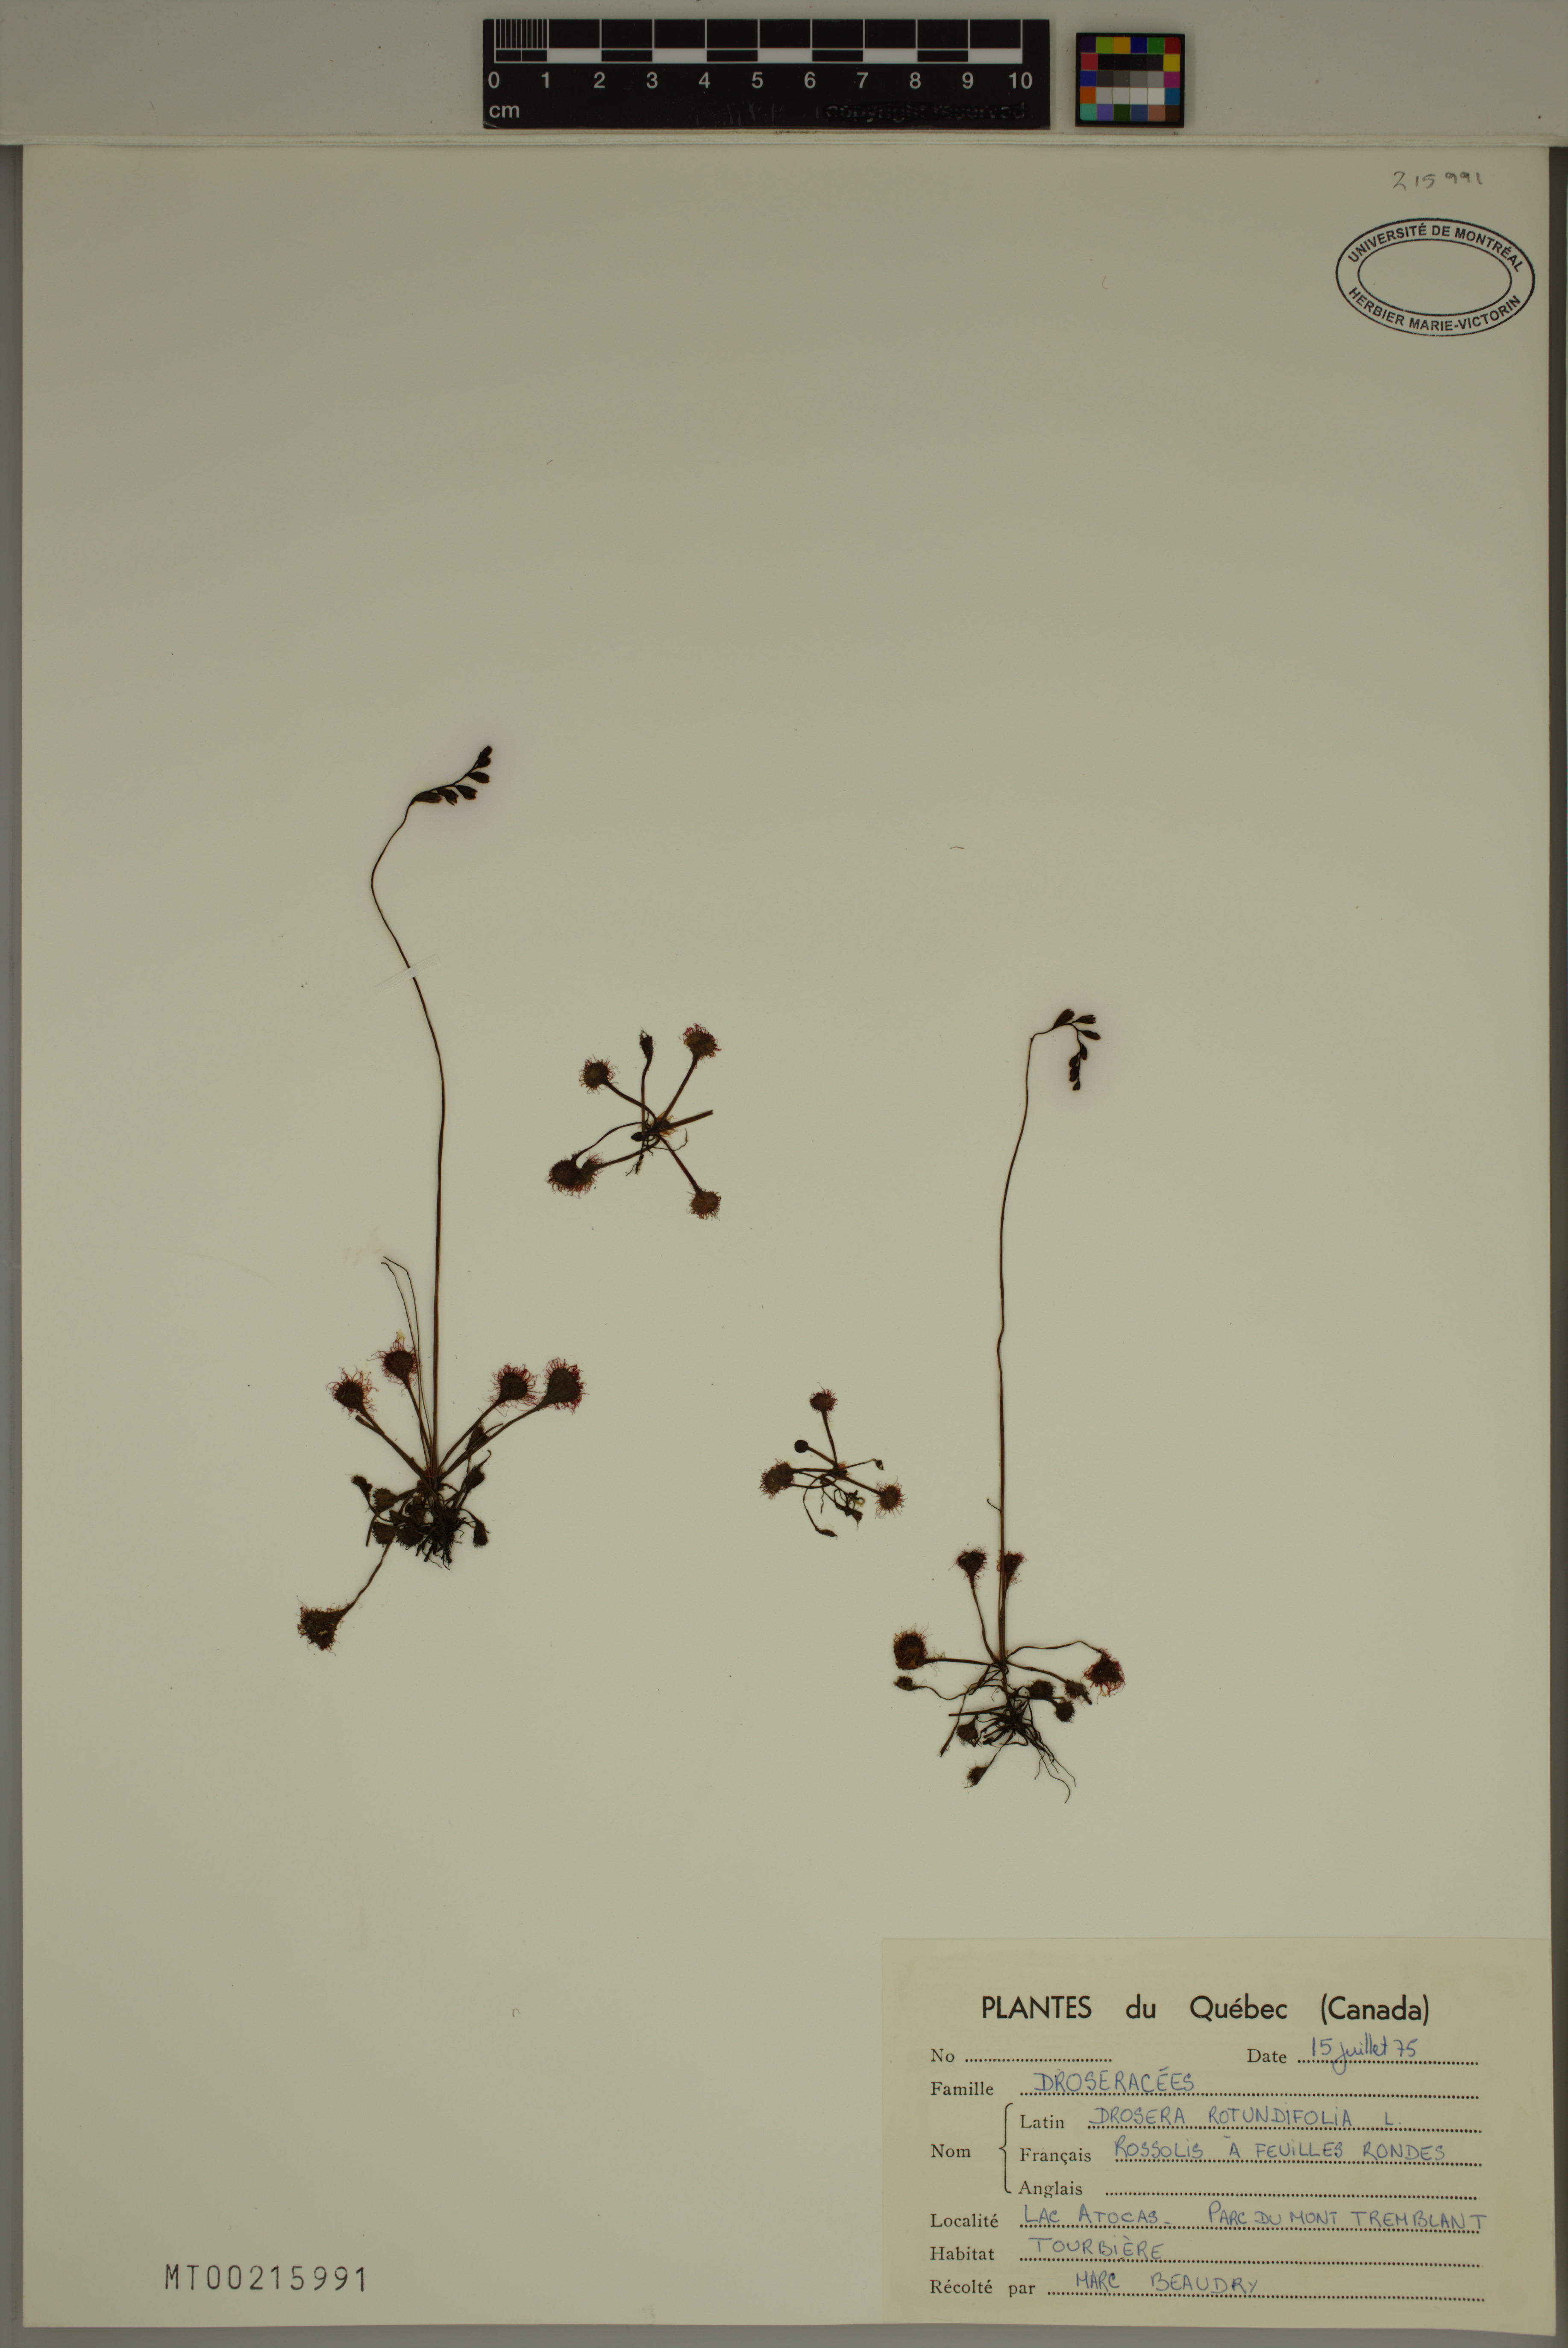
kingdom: Plantae
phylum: Tracheophyta
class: Magnoliopsida
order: Caryophyllales
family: Droseraceae
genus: Drosera
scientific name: Drosera rotundifolia
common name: Round-leaved sundew
